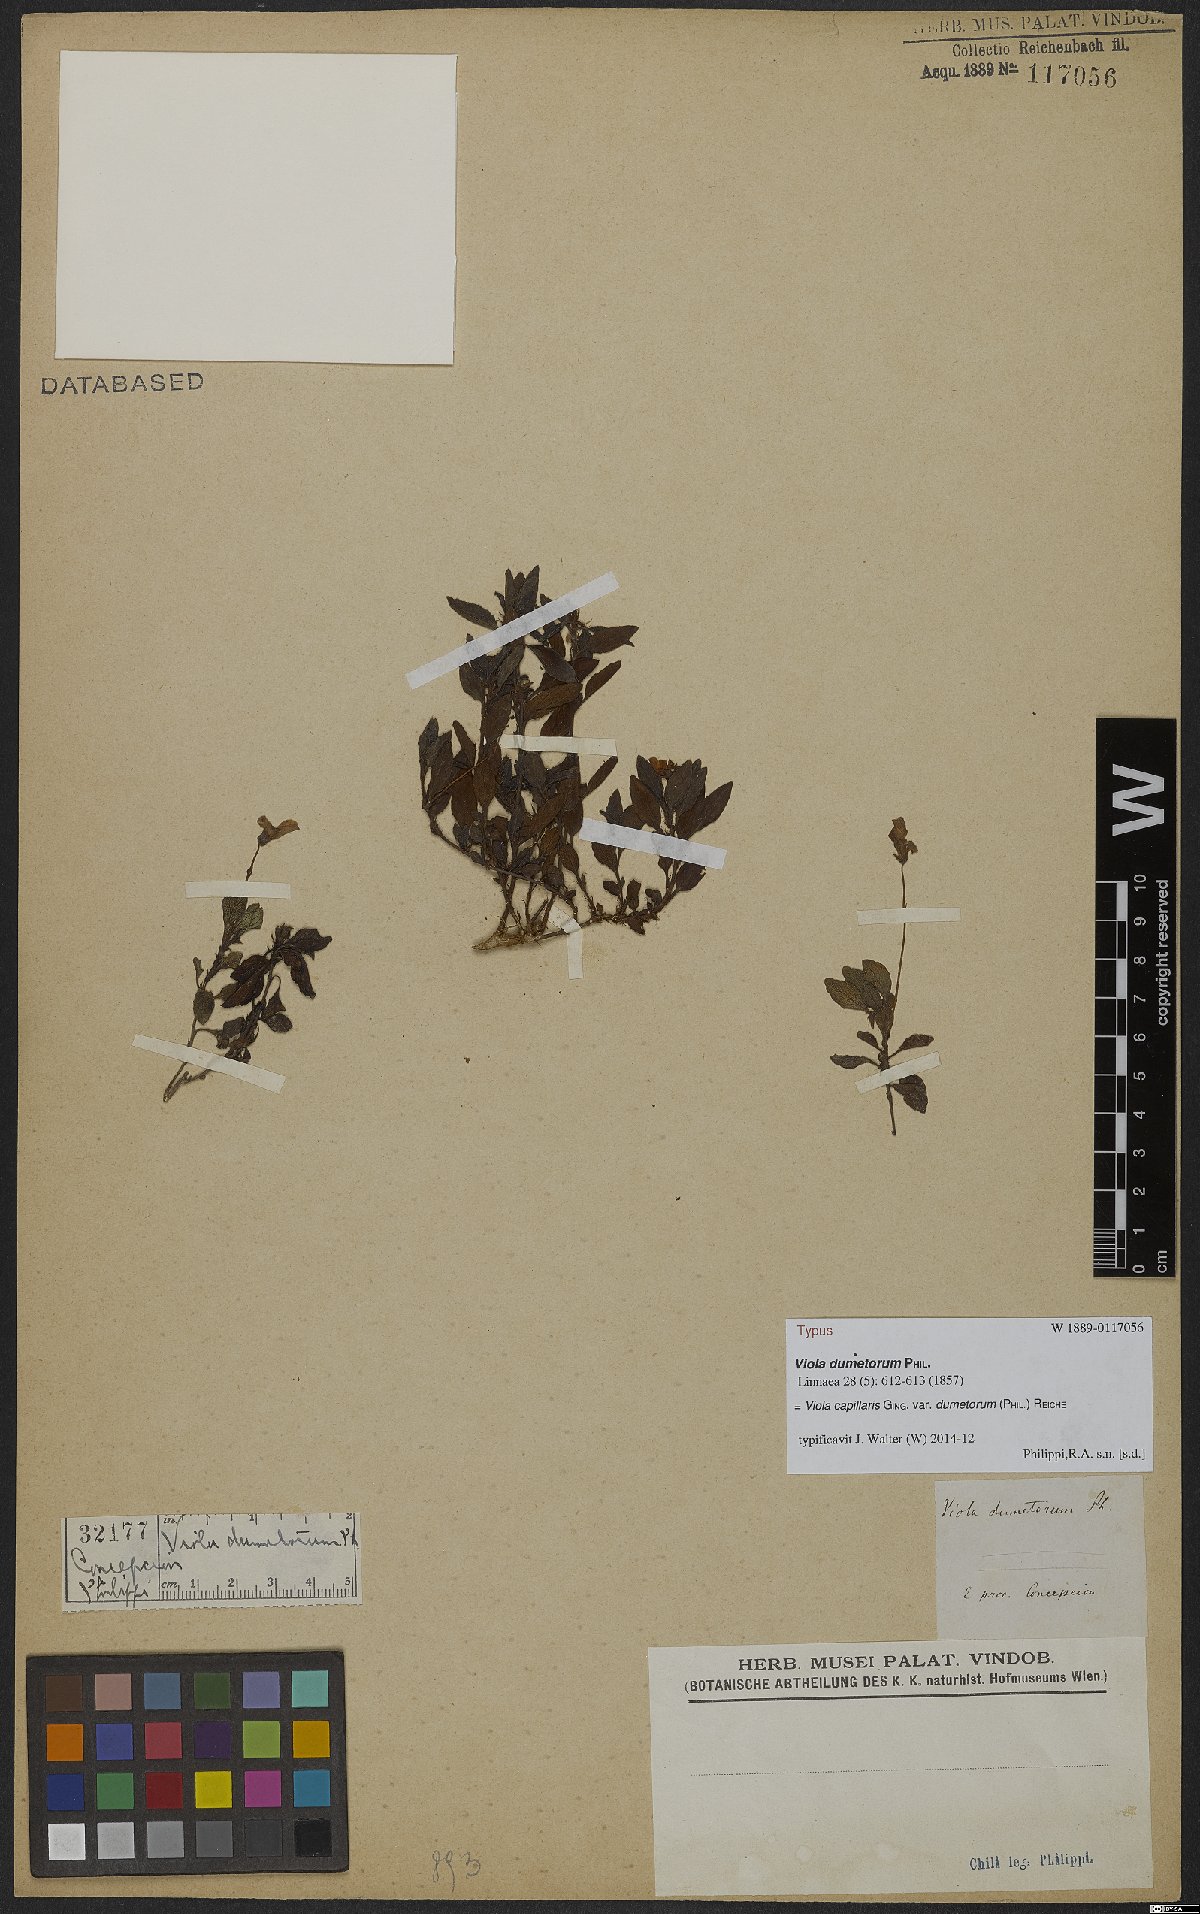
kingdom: Plantae
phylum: Tracheophyta
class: Magnoliopsida
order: Malpighiales
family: Violaceae
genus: Viola
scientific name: Viola capillaris
